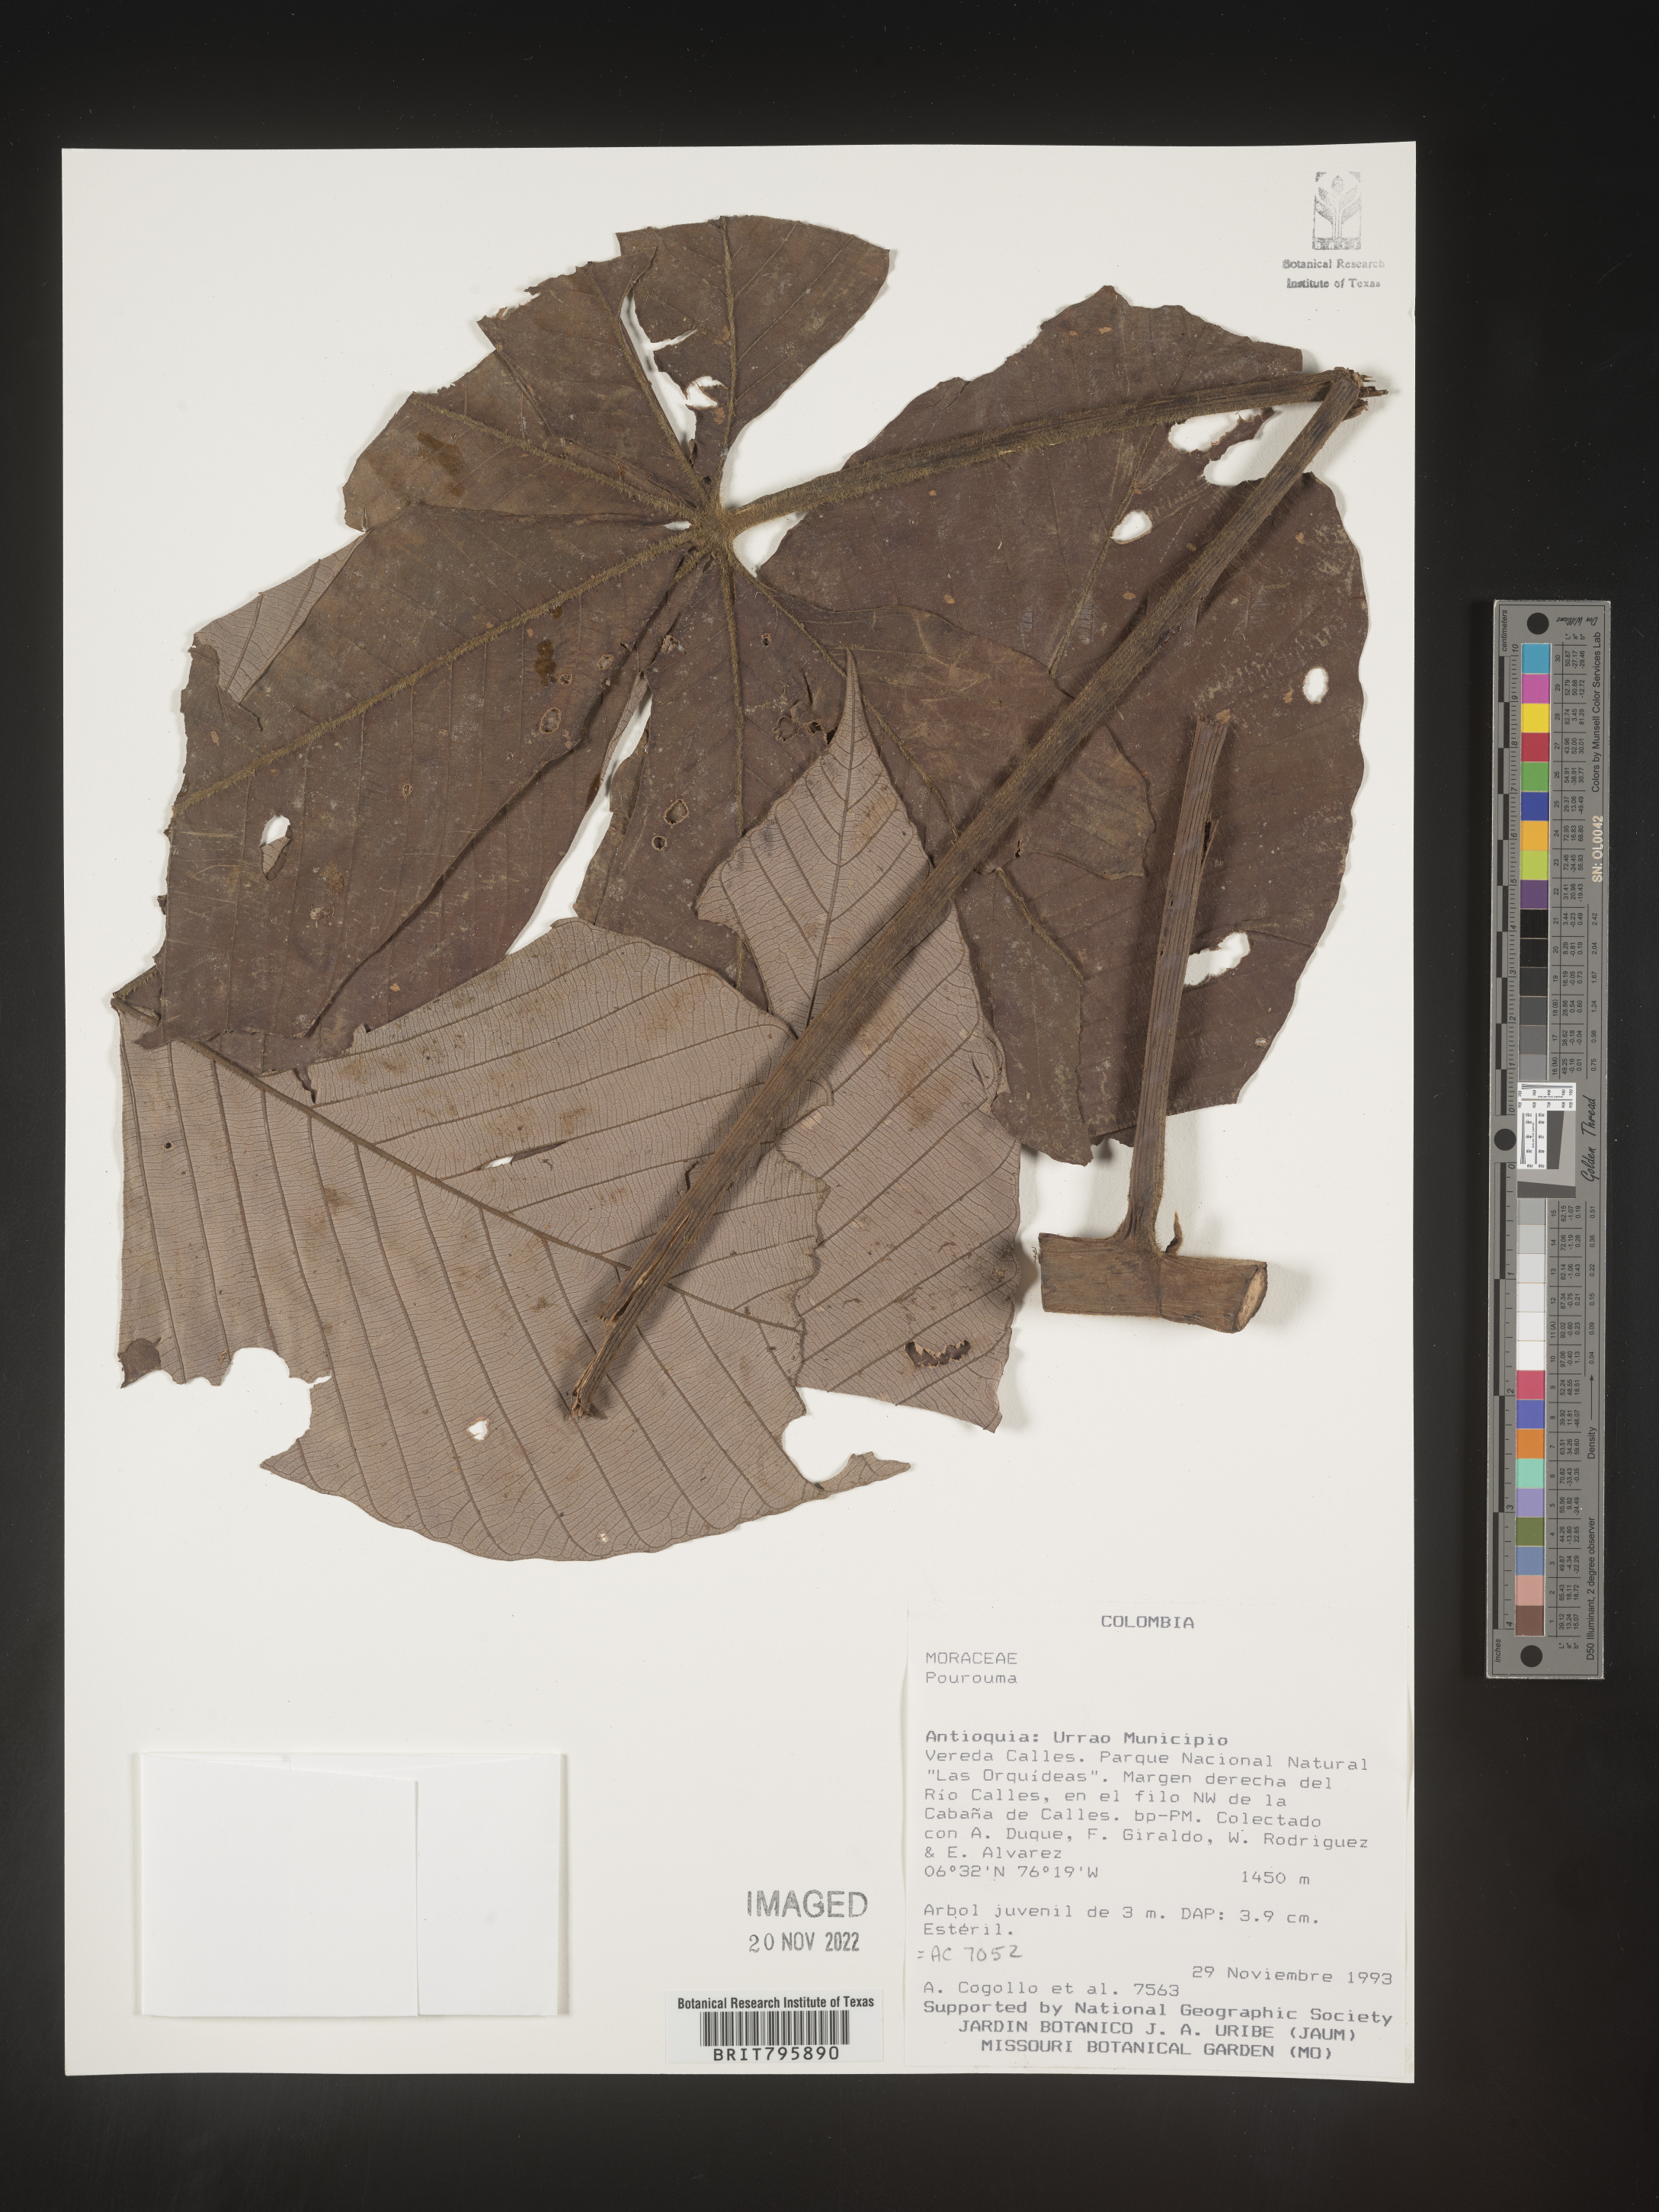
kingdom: Plantae
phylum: Tracheophyta
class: Magnoliopsida
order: Rosales
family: Urticaceae
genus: Pourouma
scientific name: Pourouma
